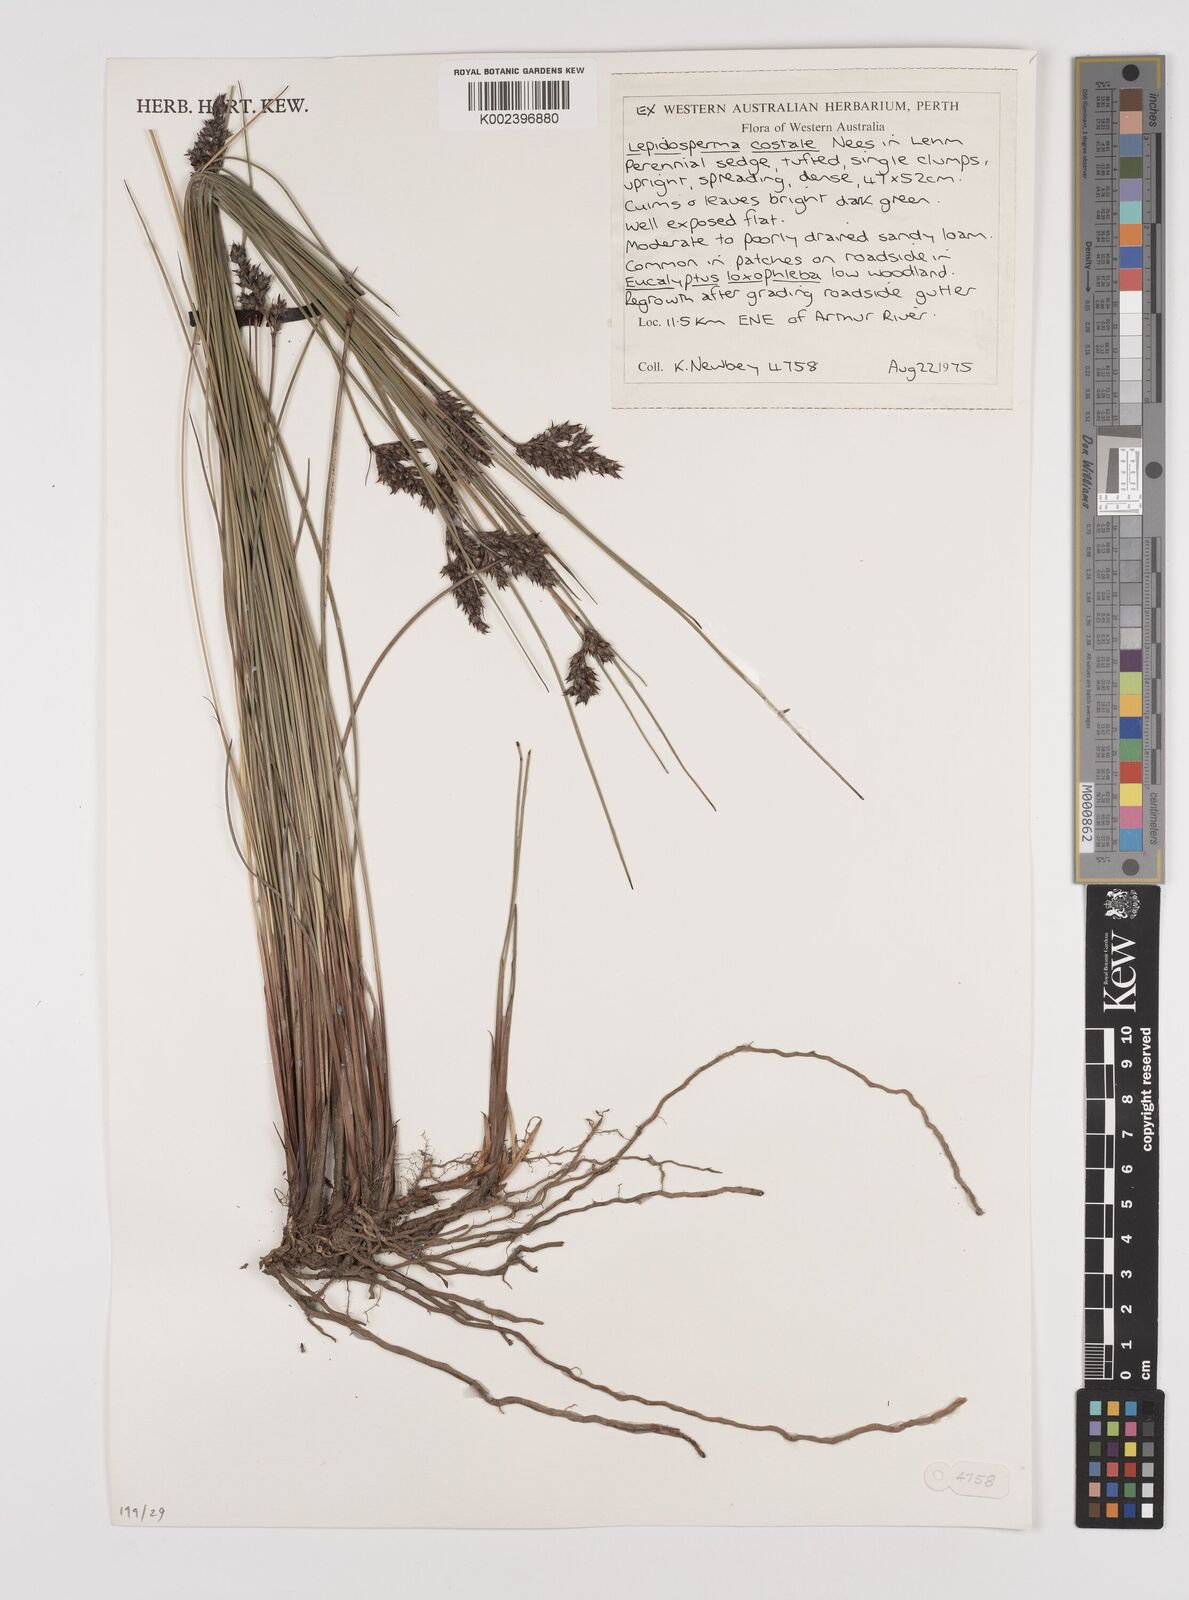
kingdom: Plantae
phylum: Tracheophyta
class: Liliopsida
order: Poales
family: Cyperaceae
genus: Lepidosperma
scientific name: Lepidosperma costale
